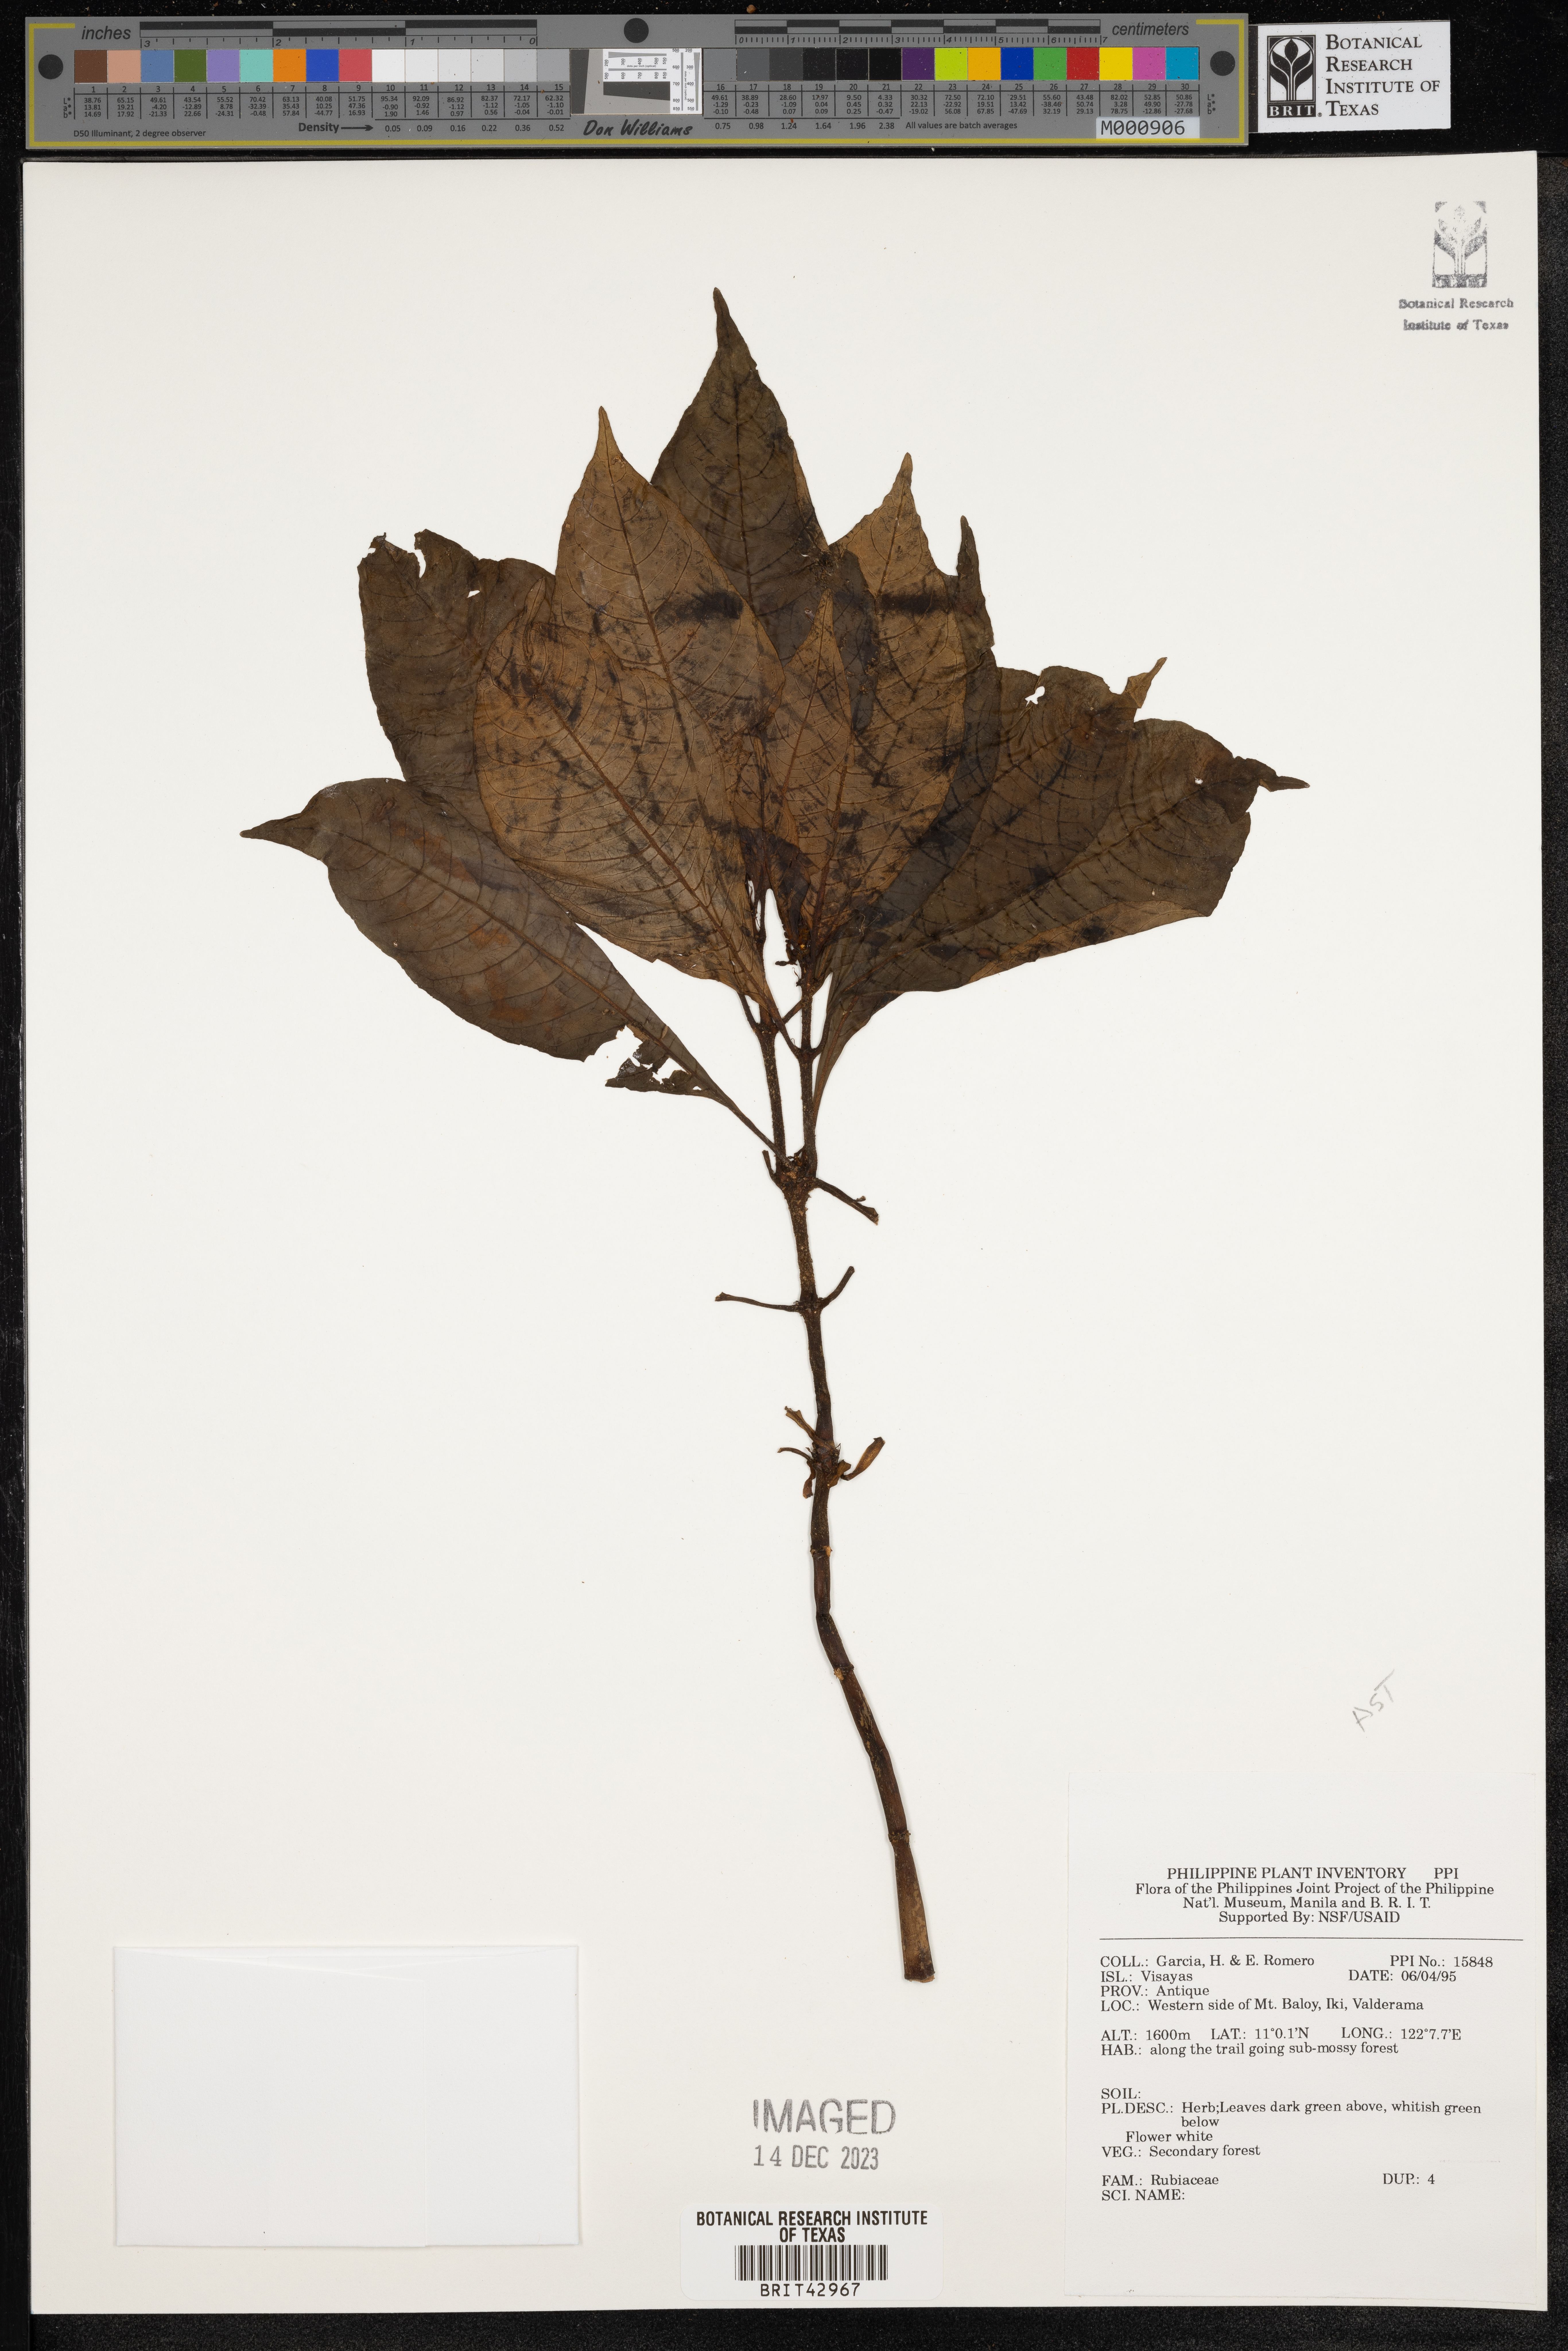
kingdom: Plantae
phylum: Tracheophyta
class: Magnoliopsida
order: Gentianales
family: Rubiaceae
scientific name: Rubiaceae
